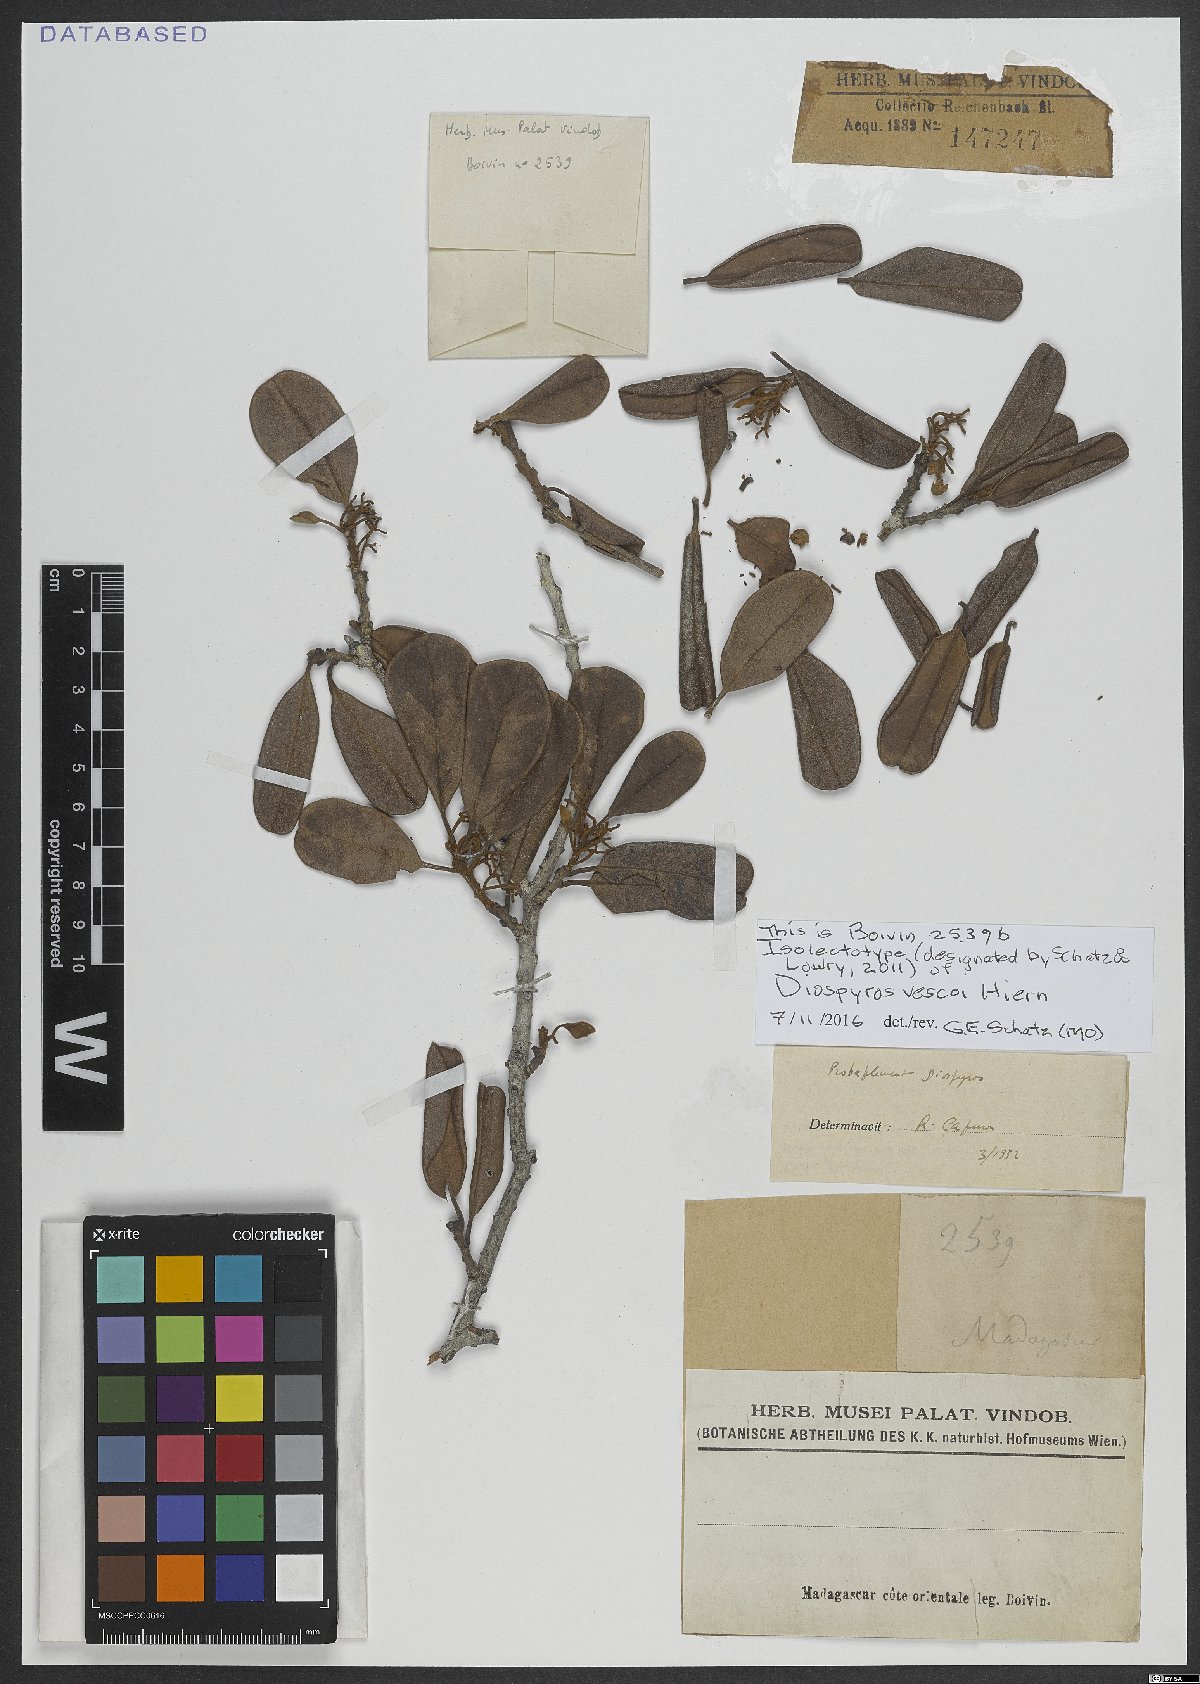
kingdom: Plantae
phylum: Tracheophyta
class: Magnoliopsida
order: Ericales
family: Ebenaceae
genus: Diospyros
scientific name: Diospyros vescoi
